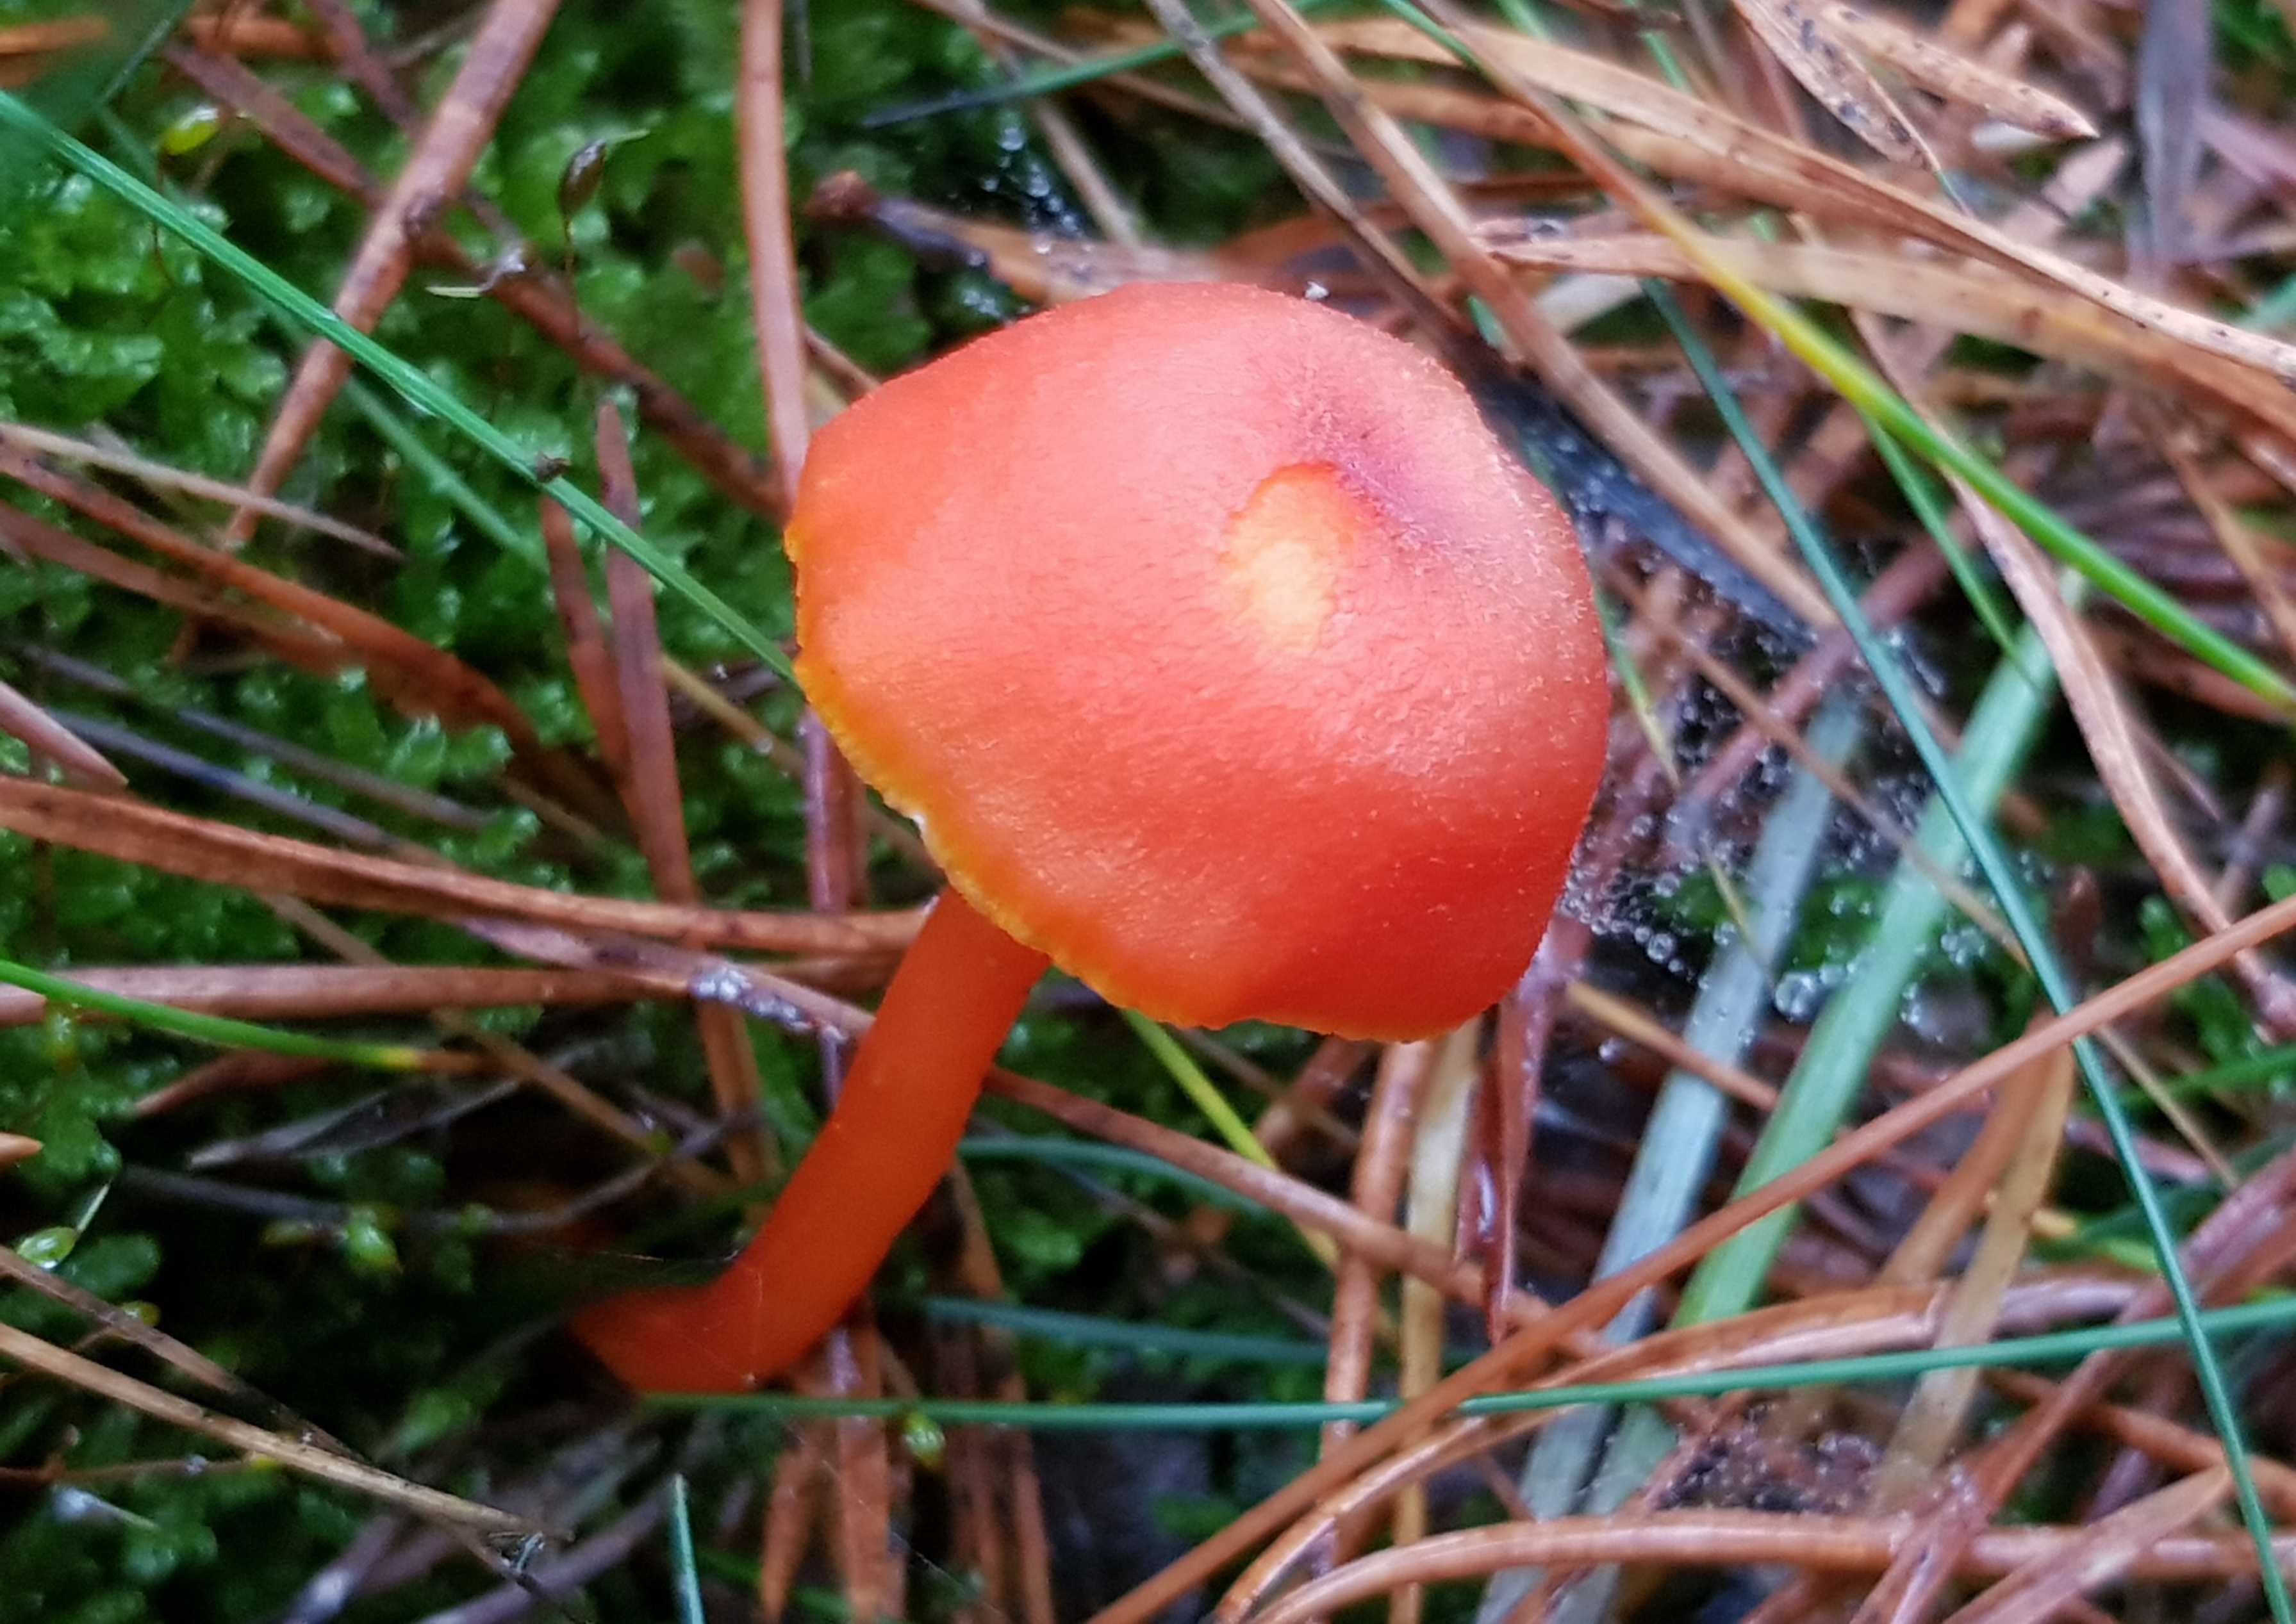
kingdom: Fungi
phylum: Basidiomycota
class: Agaricomycetes
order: Agaricales
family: Hygrophoraceae
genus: Hygrocybe
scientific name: Hygrocybe miniata
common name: mønje-vokshat
